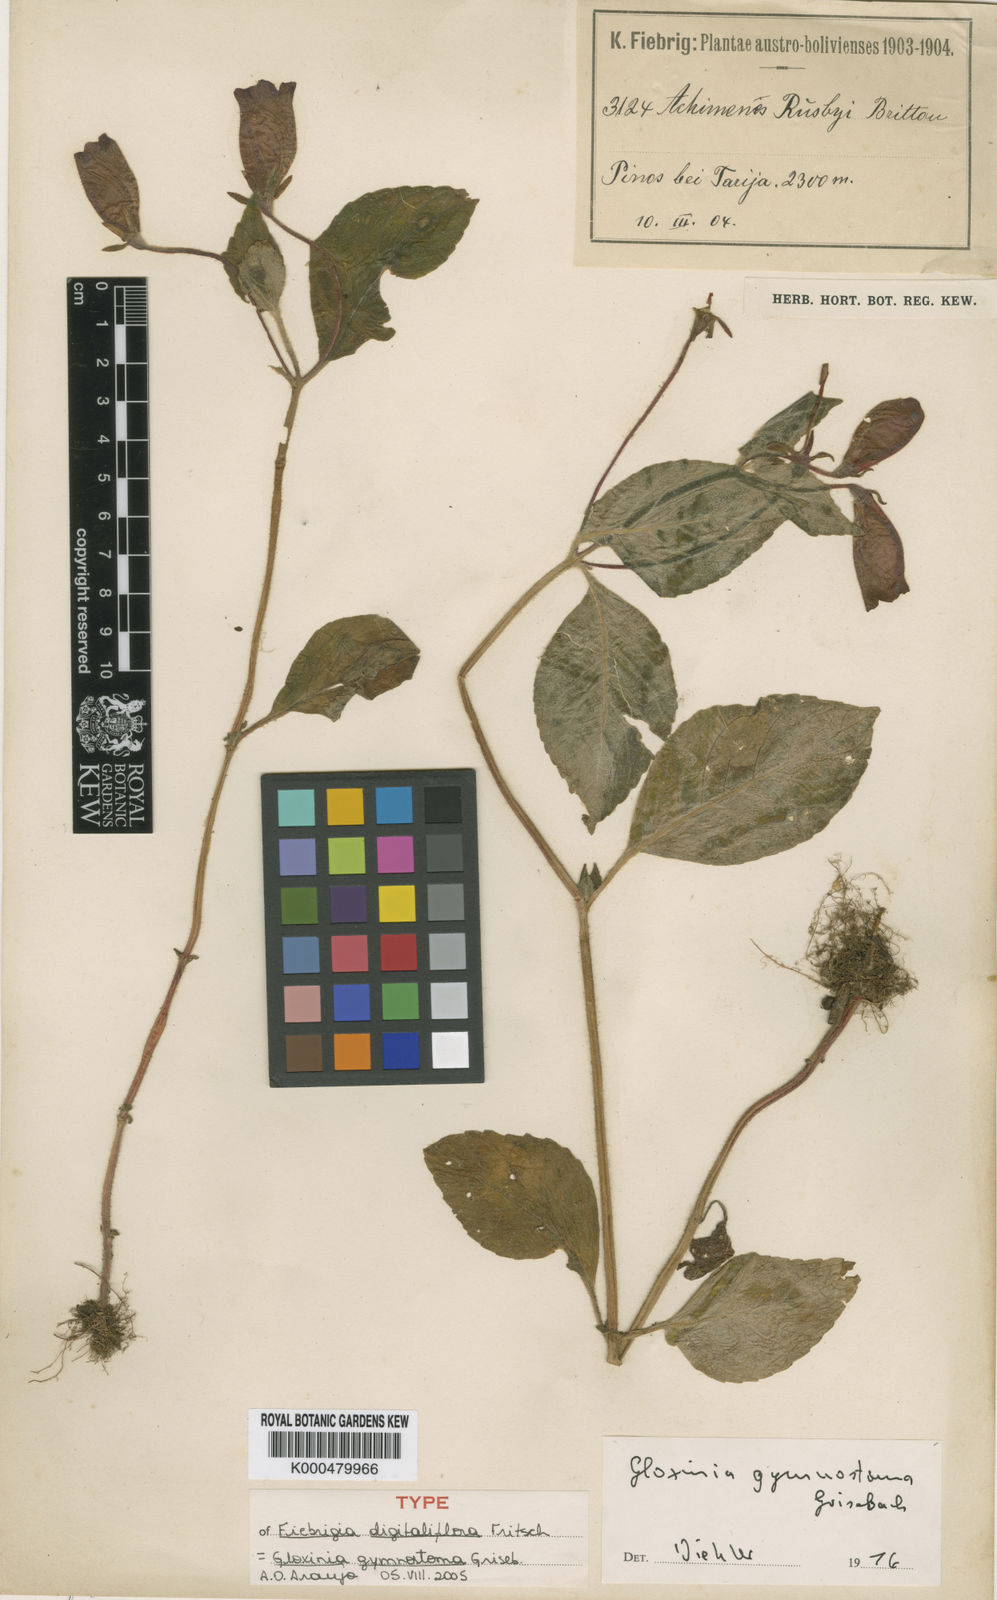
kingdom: Plantae
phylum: Tracheophyta
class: Magnoliopsida
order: Lamiales
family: Gesneriaceae
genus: Seemannia
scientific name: Seemannia gymnostoma
